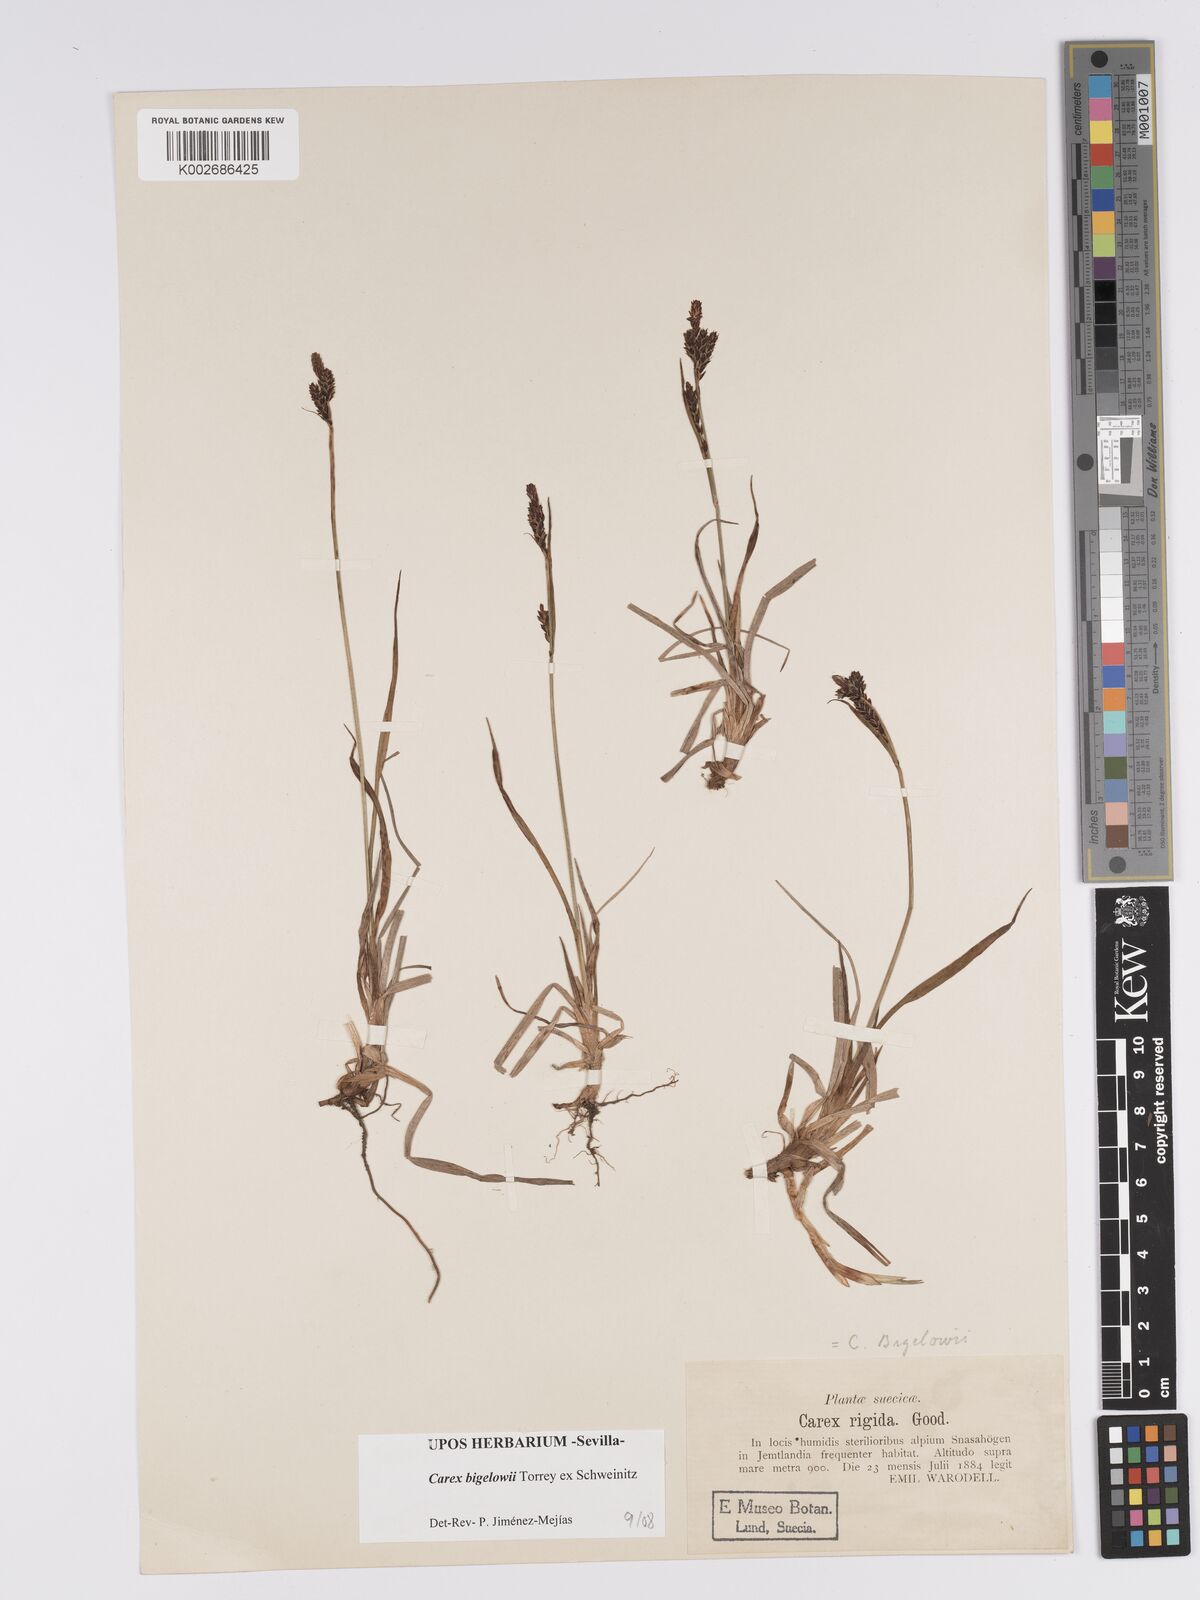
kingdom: Plantae
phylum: Tracheophyta
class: Liliopsida
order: Poales
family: Cyperaceae
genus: Carex
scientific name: Carex bigelowii
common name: Stiff sedge
